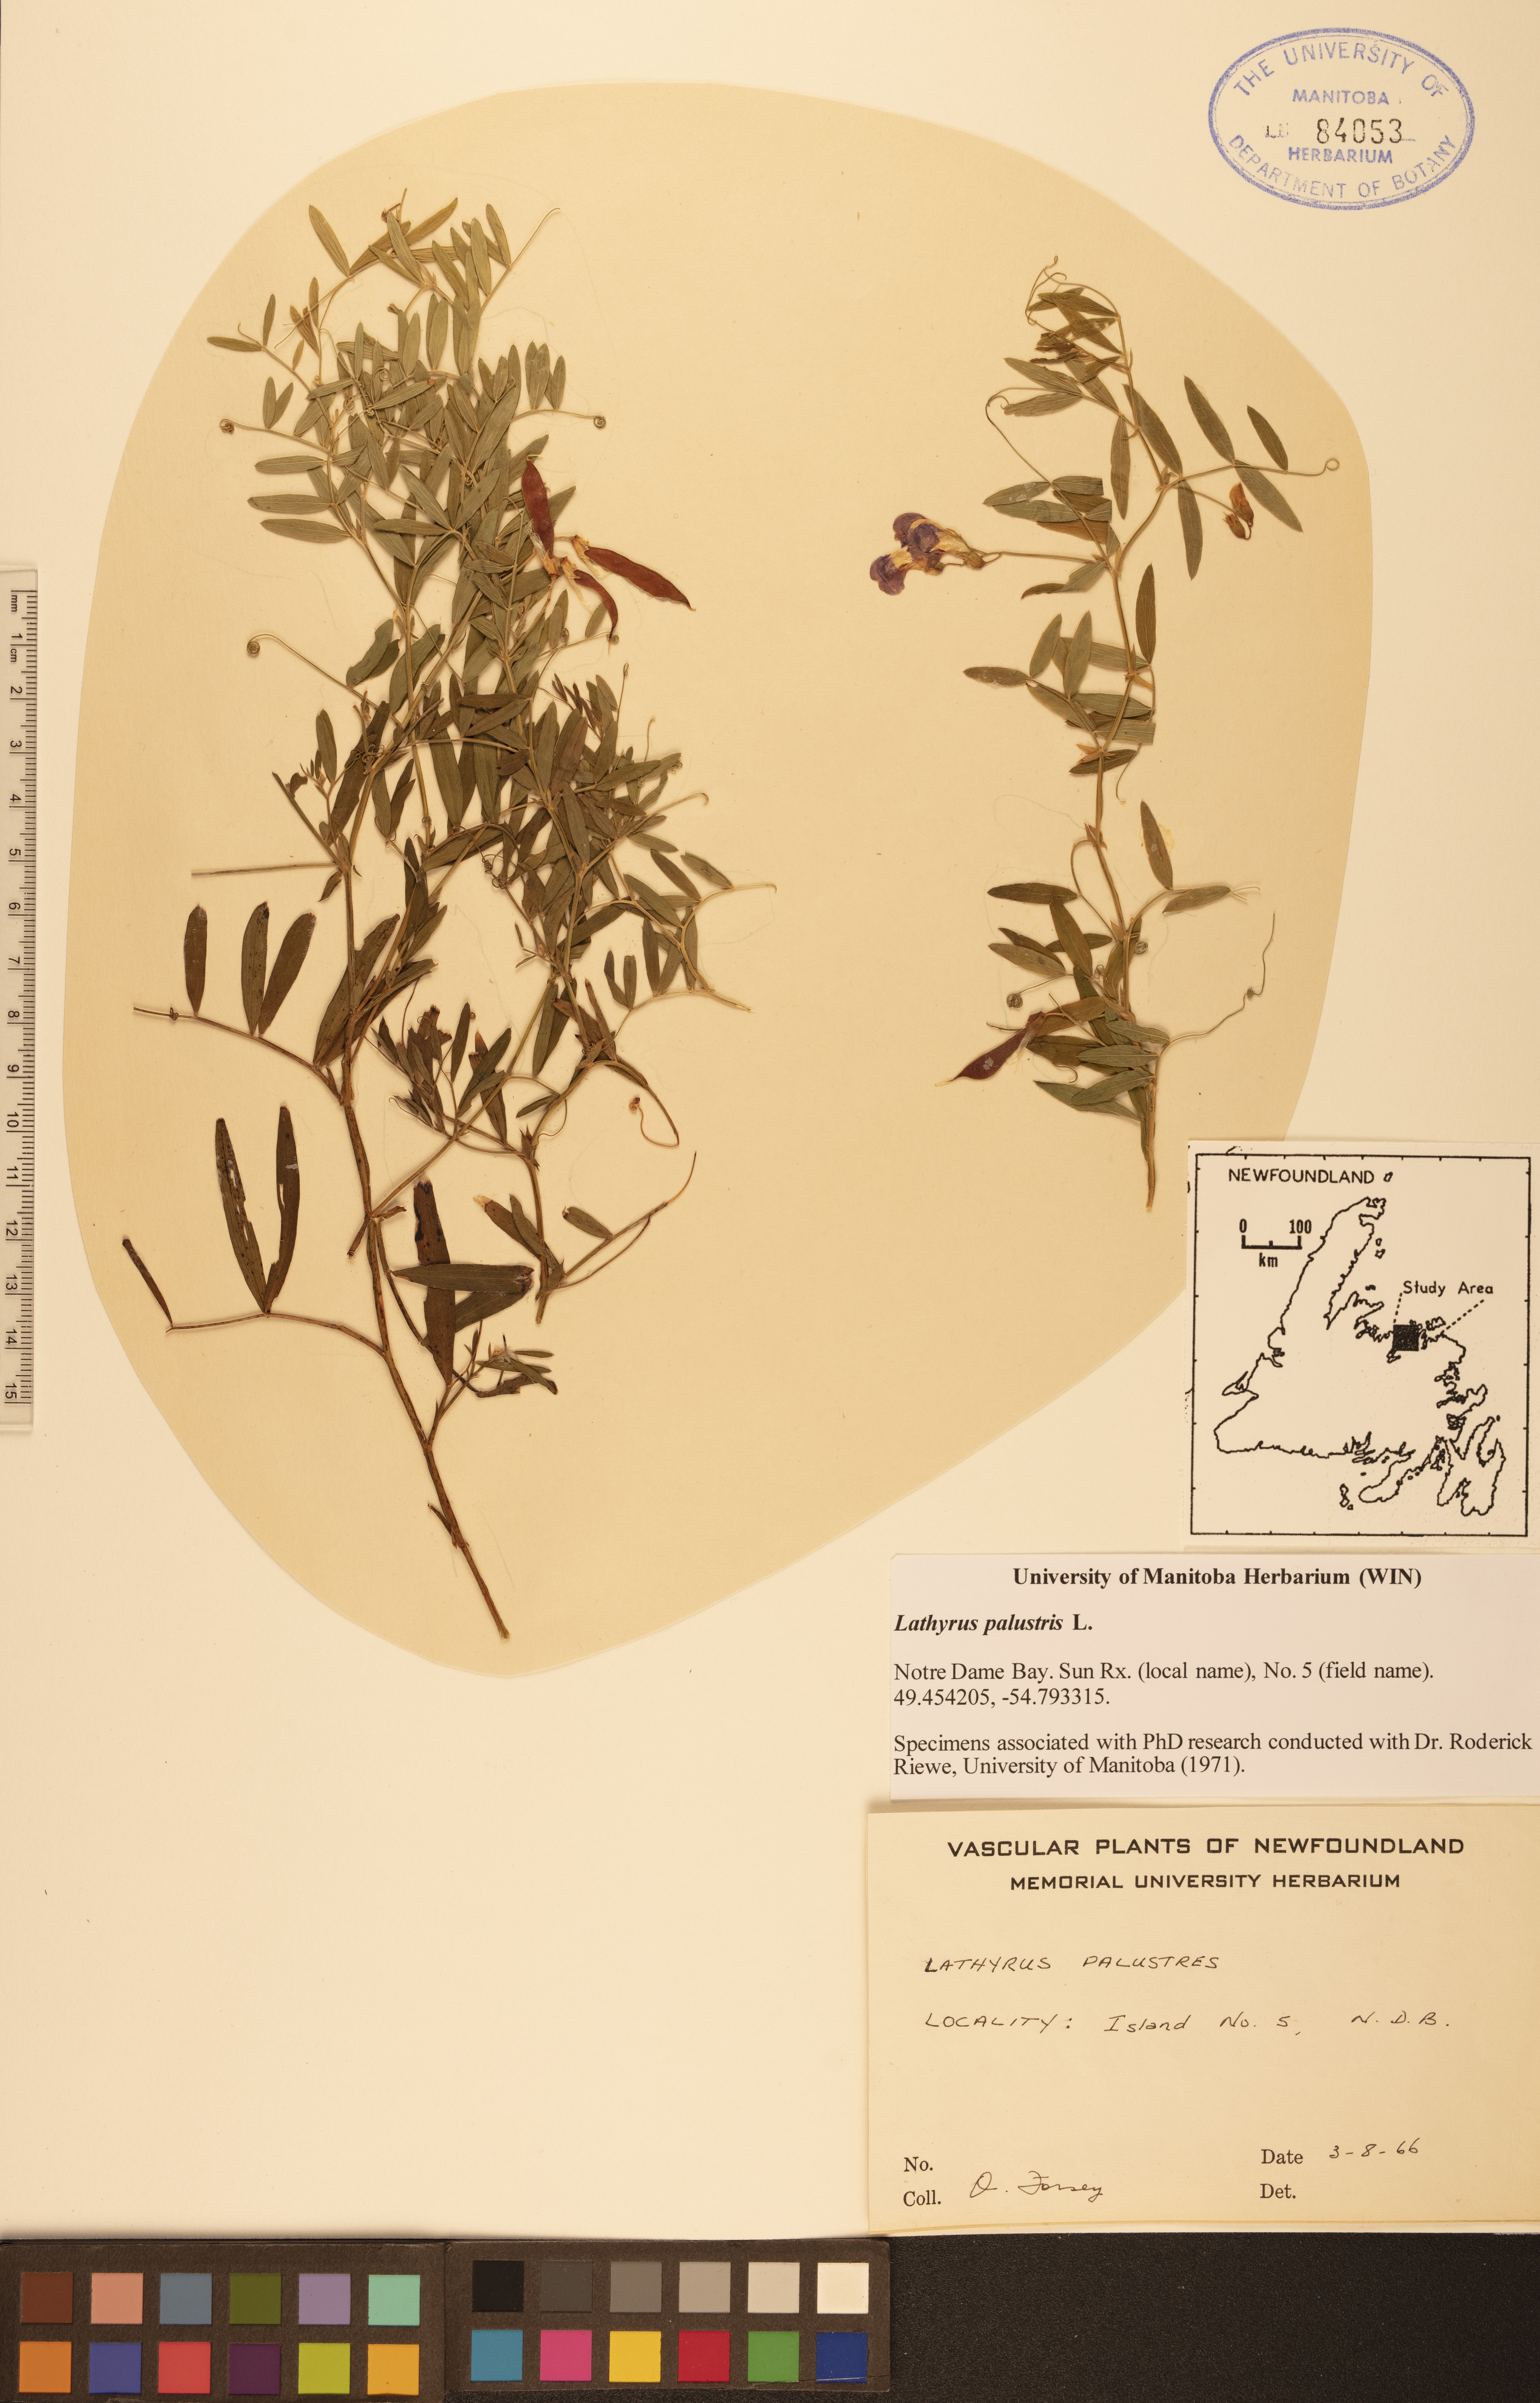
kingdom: Plantae
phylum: Tracheophyta
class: Magnoliopsida
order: Fabales
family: Fabaceae
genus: Lathyrus
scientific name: Lathyrus palustris
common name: Marsh pea
